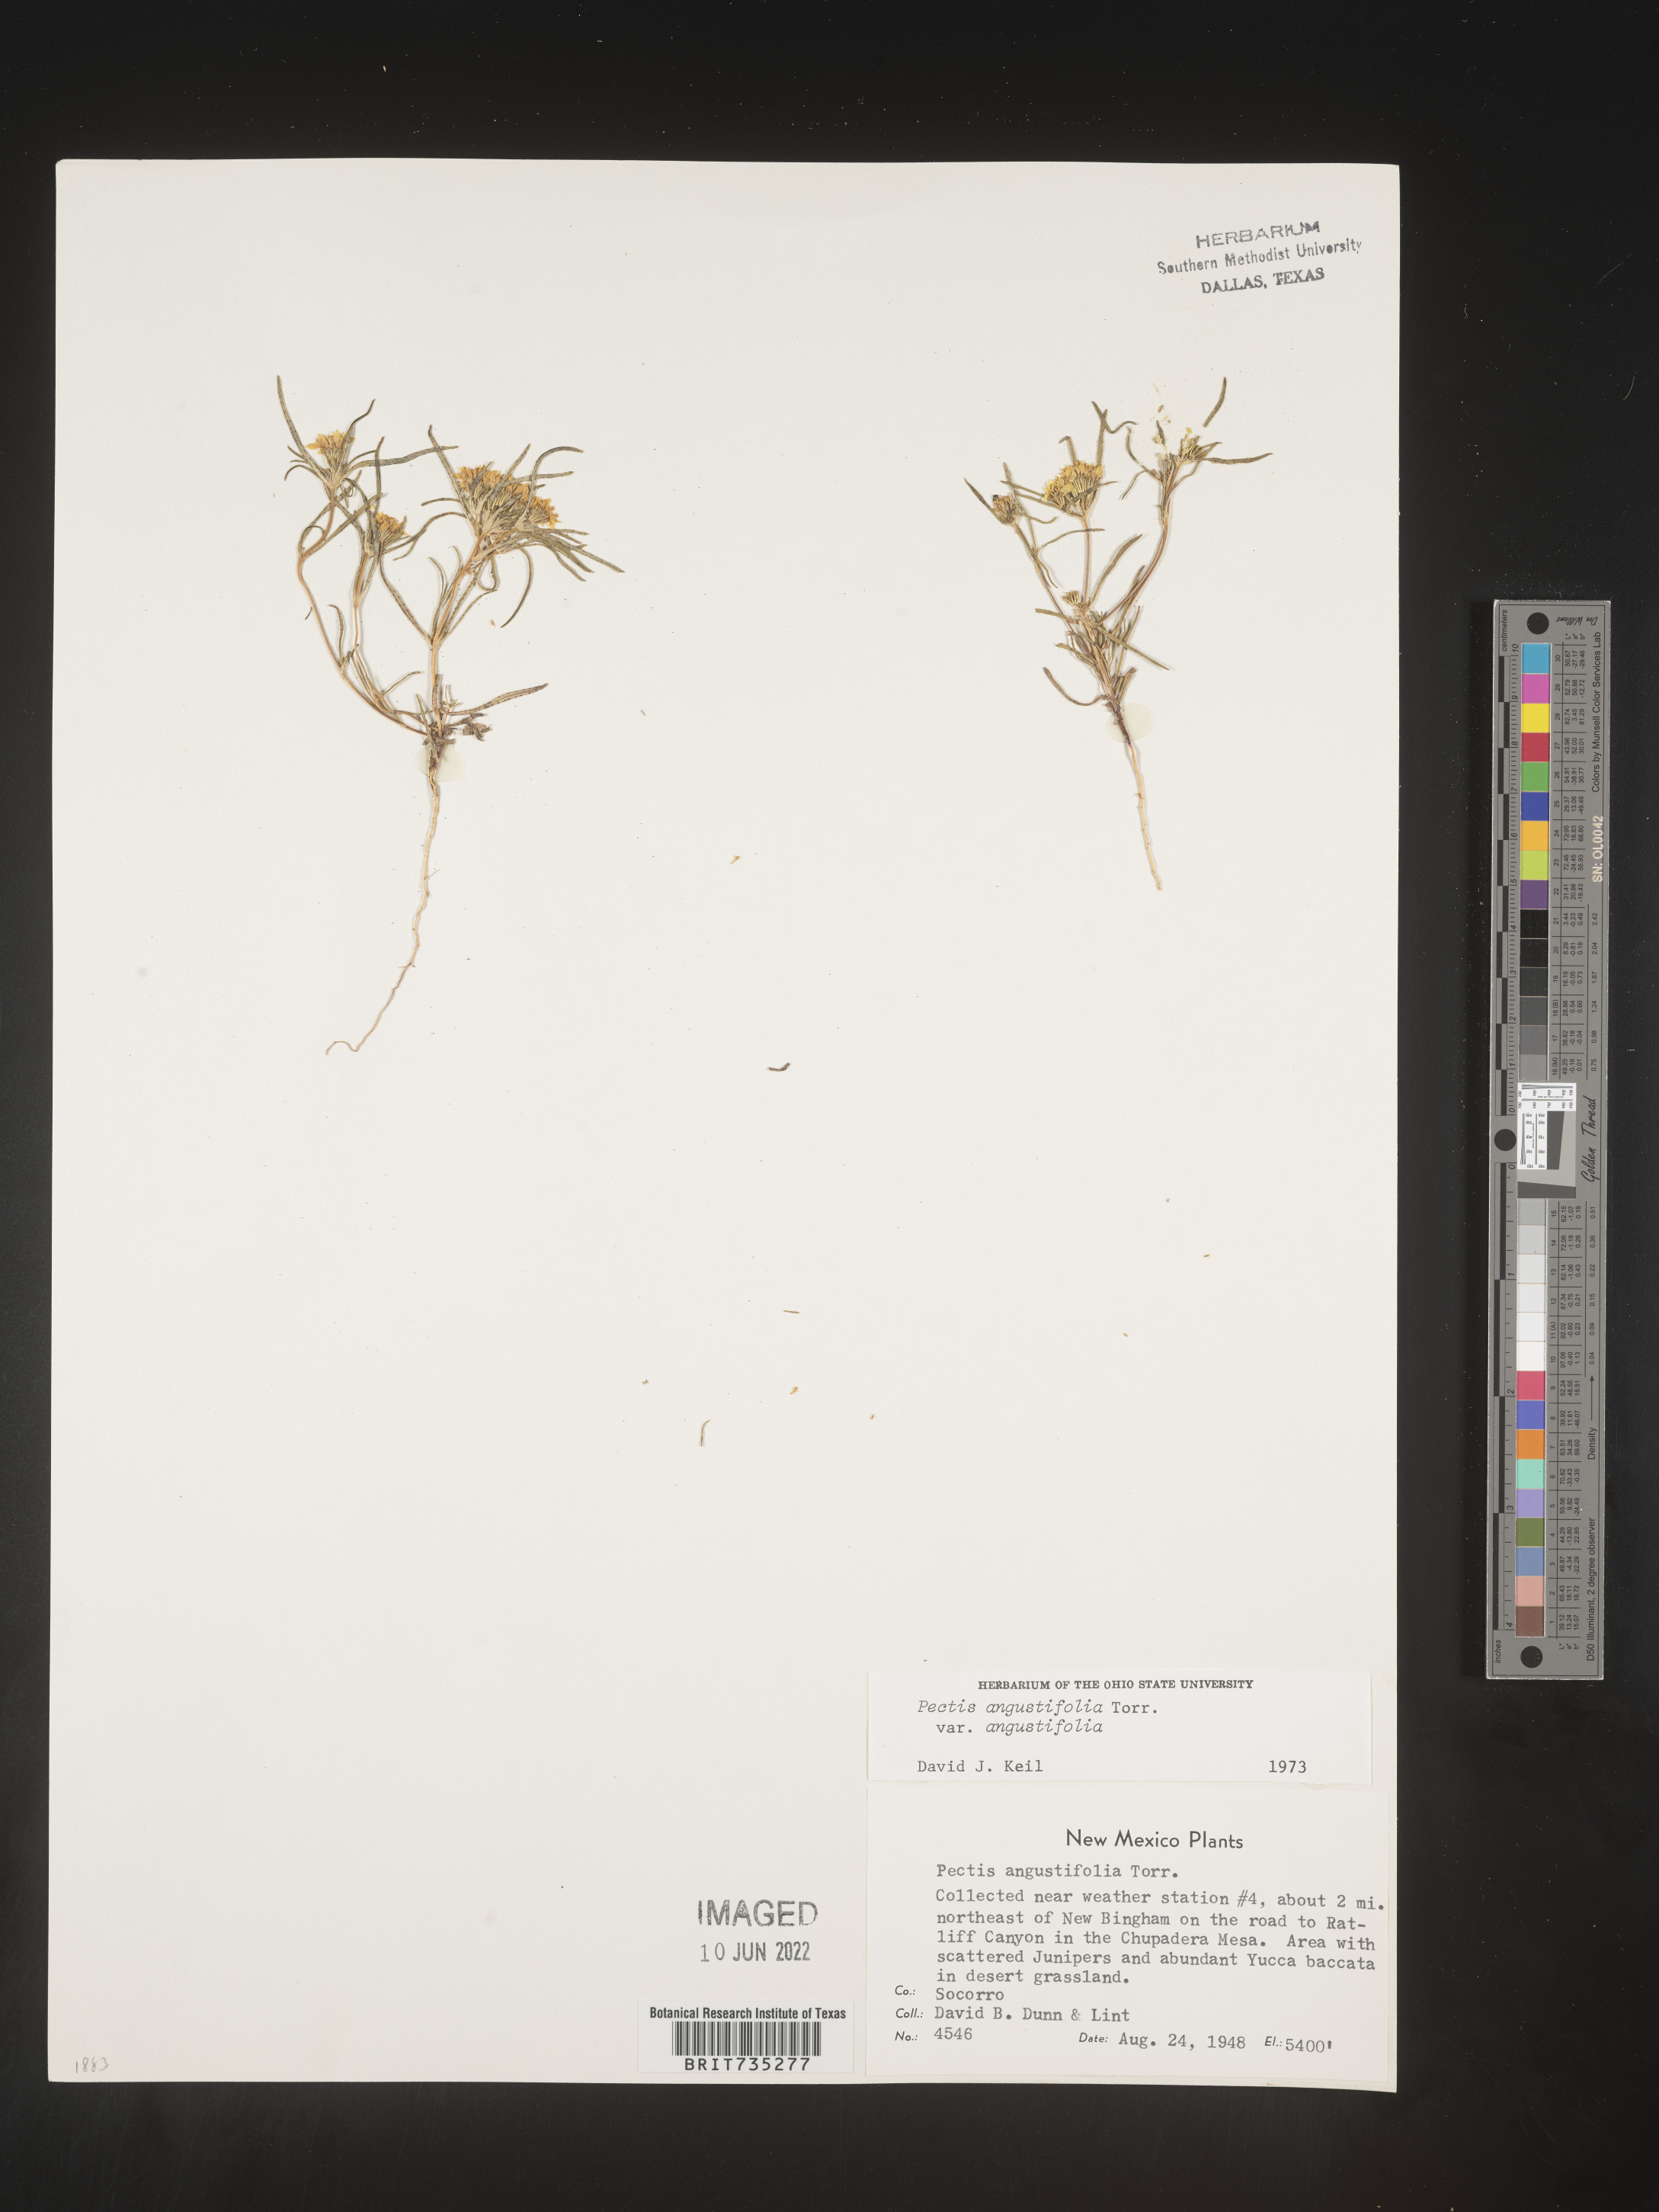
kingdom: Plantae
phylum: Tracheophyta
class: Magnoliopsida
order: Asterales
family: Asteraceae
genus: Pectis
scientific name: Pectis angustifolia
